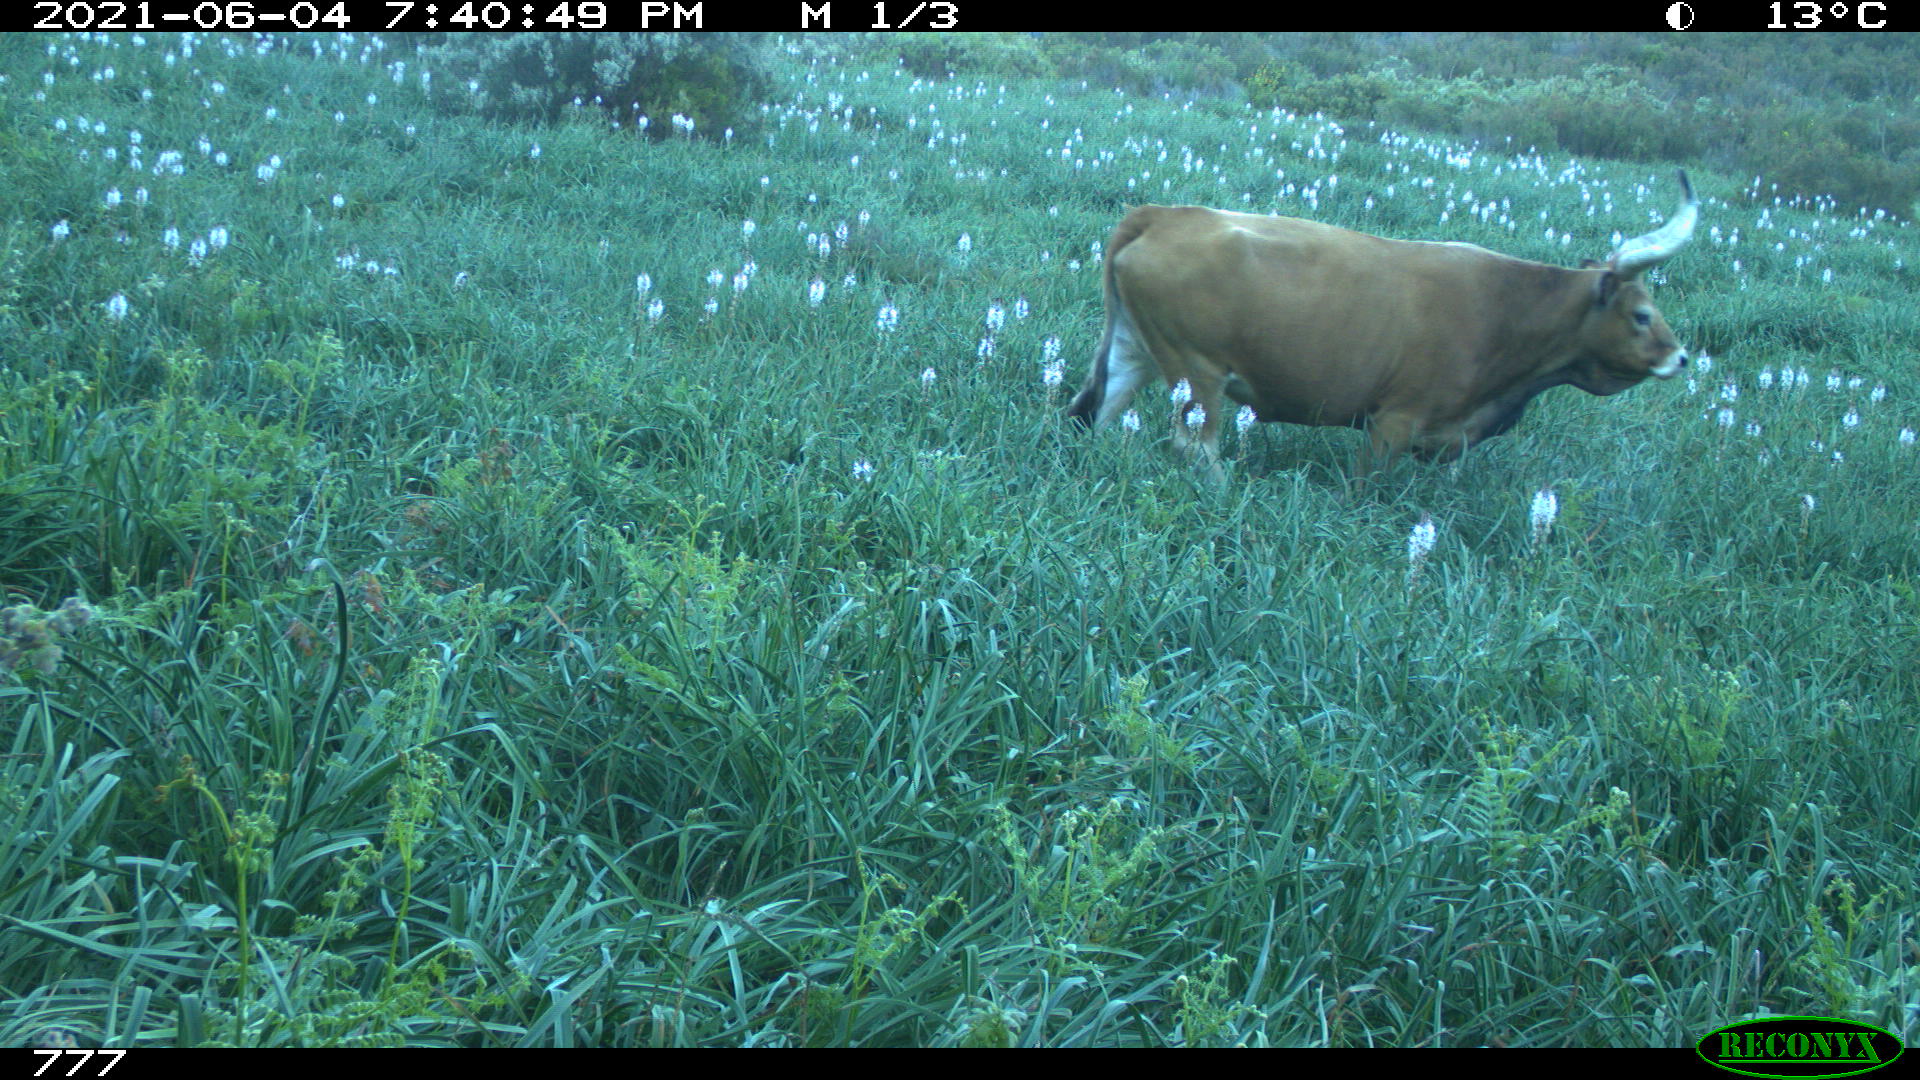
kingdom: Animalia
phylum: Chordata
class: Mammalia
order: Artiodactyla
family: Bovidae
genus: Bos
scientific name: Bos taurus
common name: Domesticated cattle
